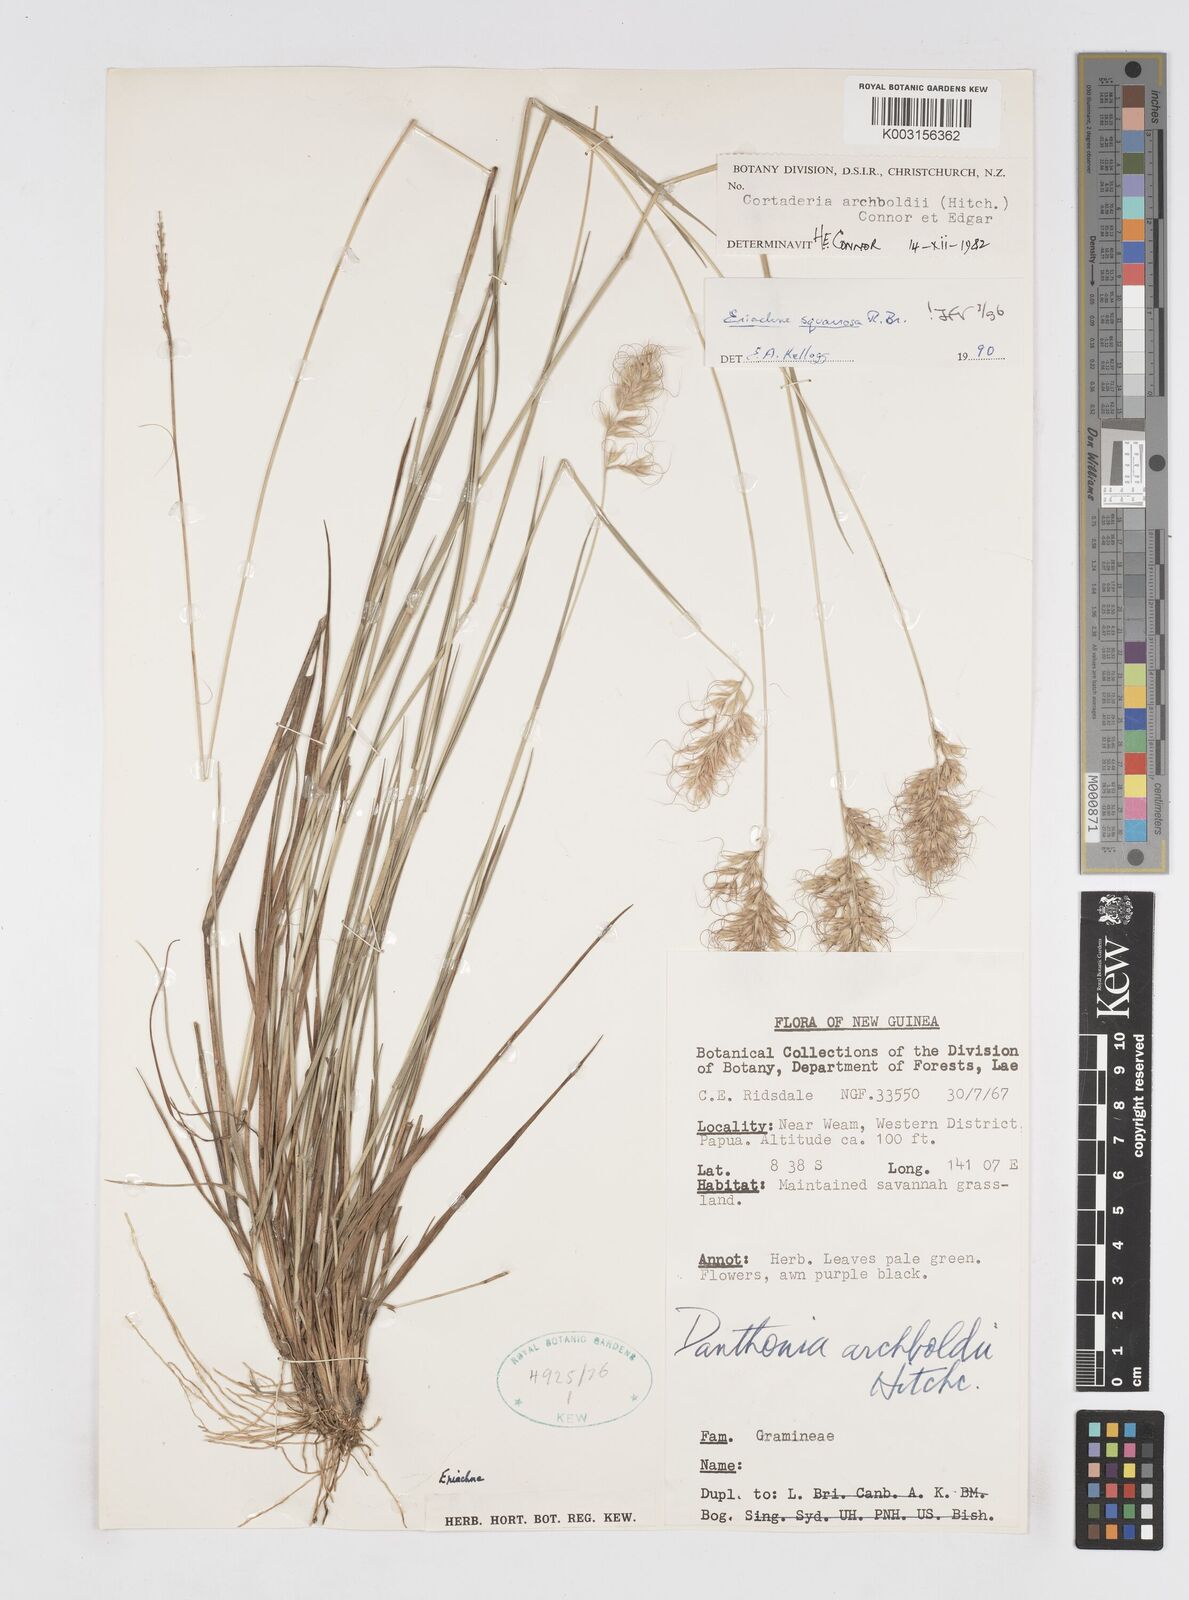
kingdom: Plantae
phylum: Tracheophyta
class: Liliopsida
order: Poales
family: Poaceae
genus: Eriachne
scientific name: Eriachne squarrosa
